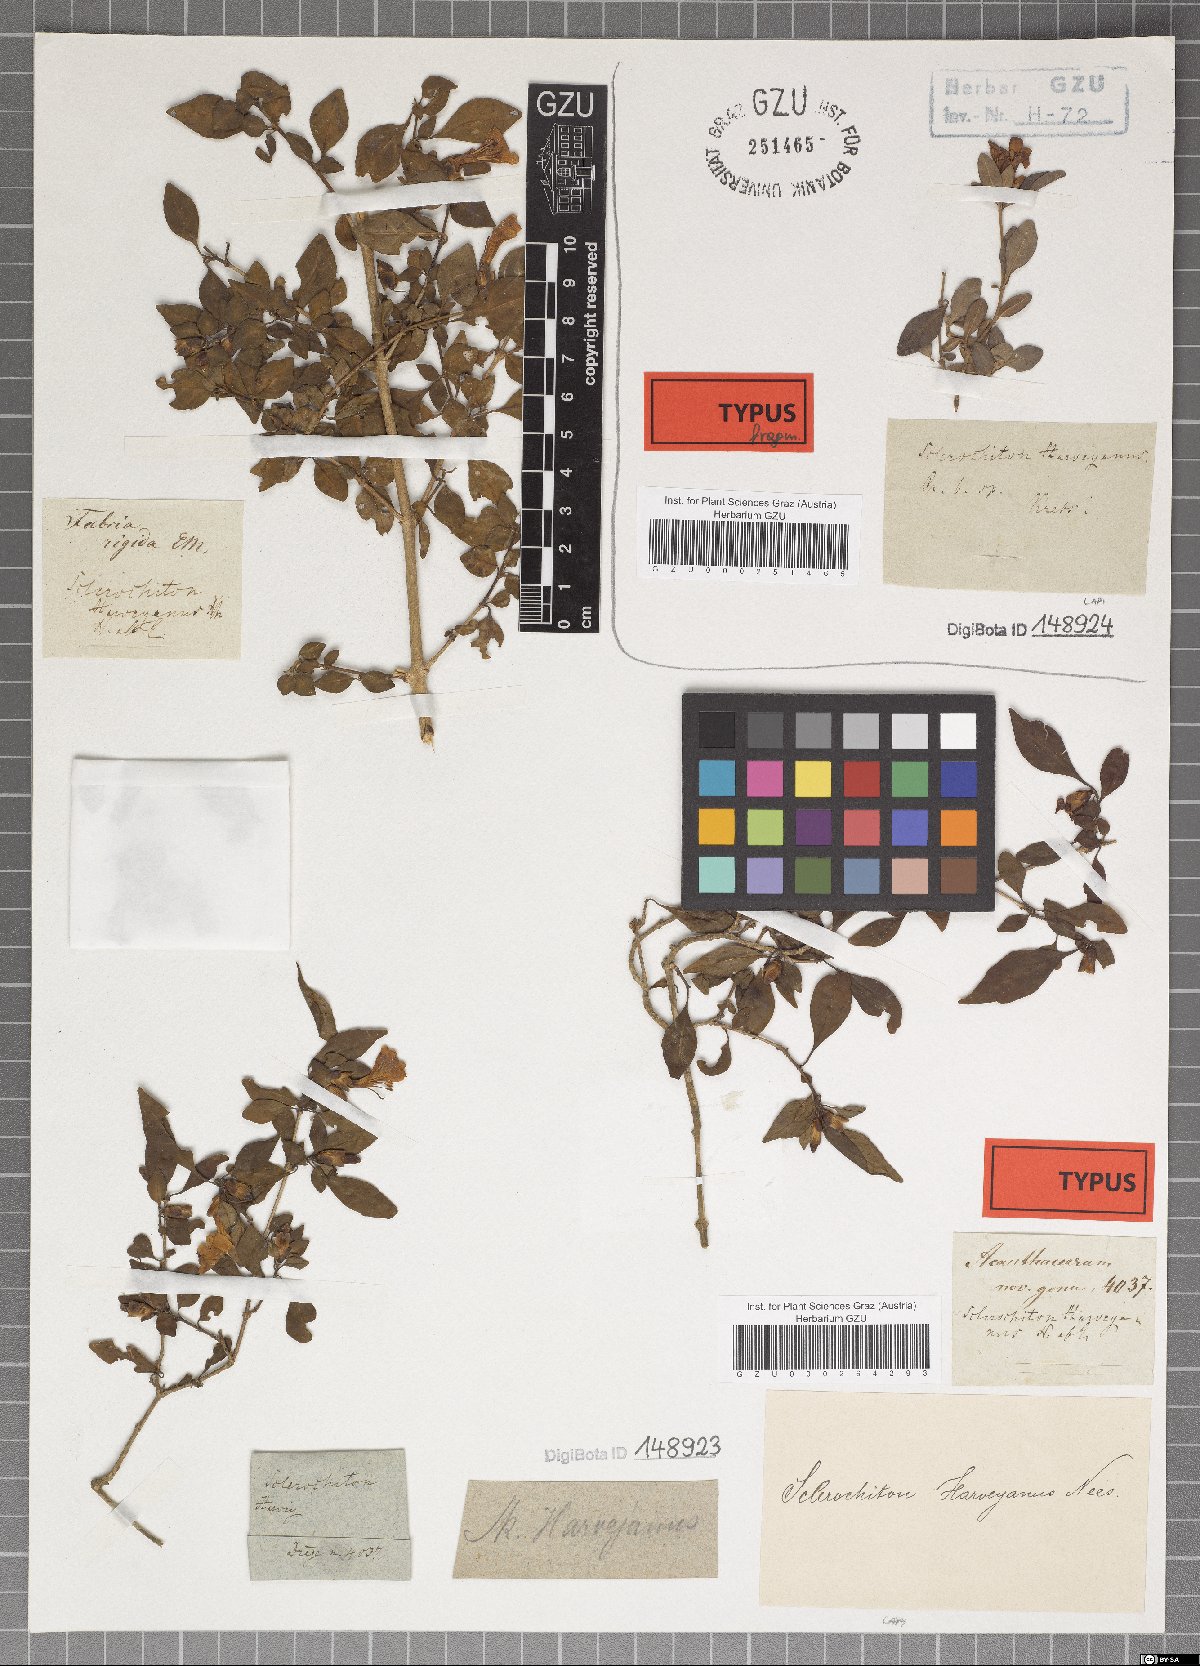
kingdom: Plantae
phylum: Tracheophyta
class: Magnoliopsida
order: Lamiales
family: Acanthaceae
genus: Sclerochiton
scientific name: Sclerochiton harveyanus
